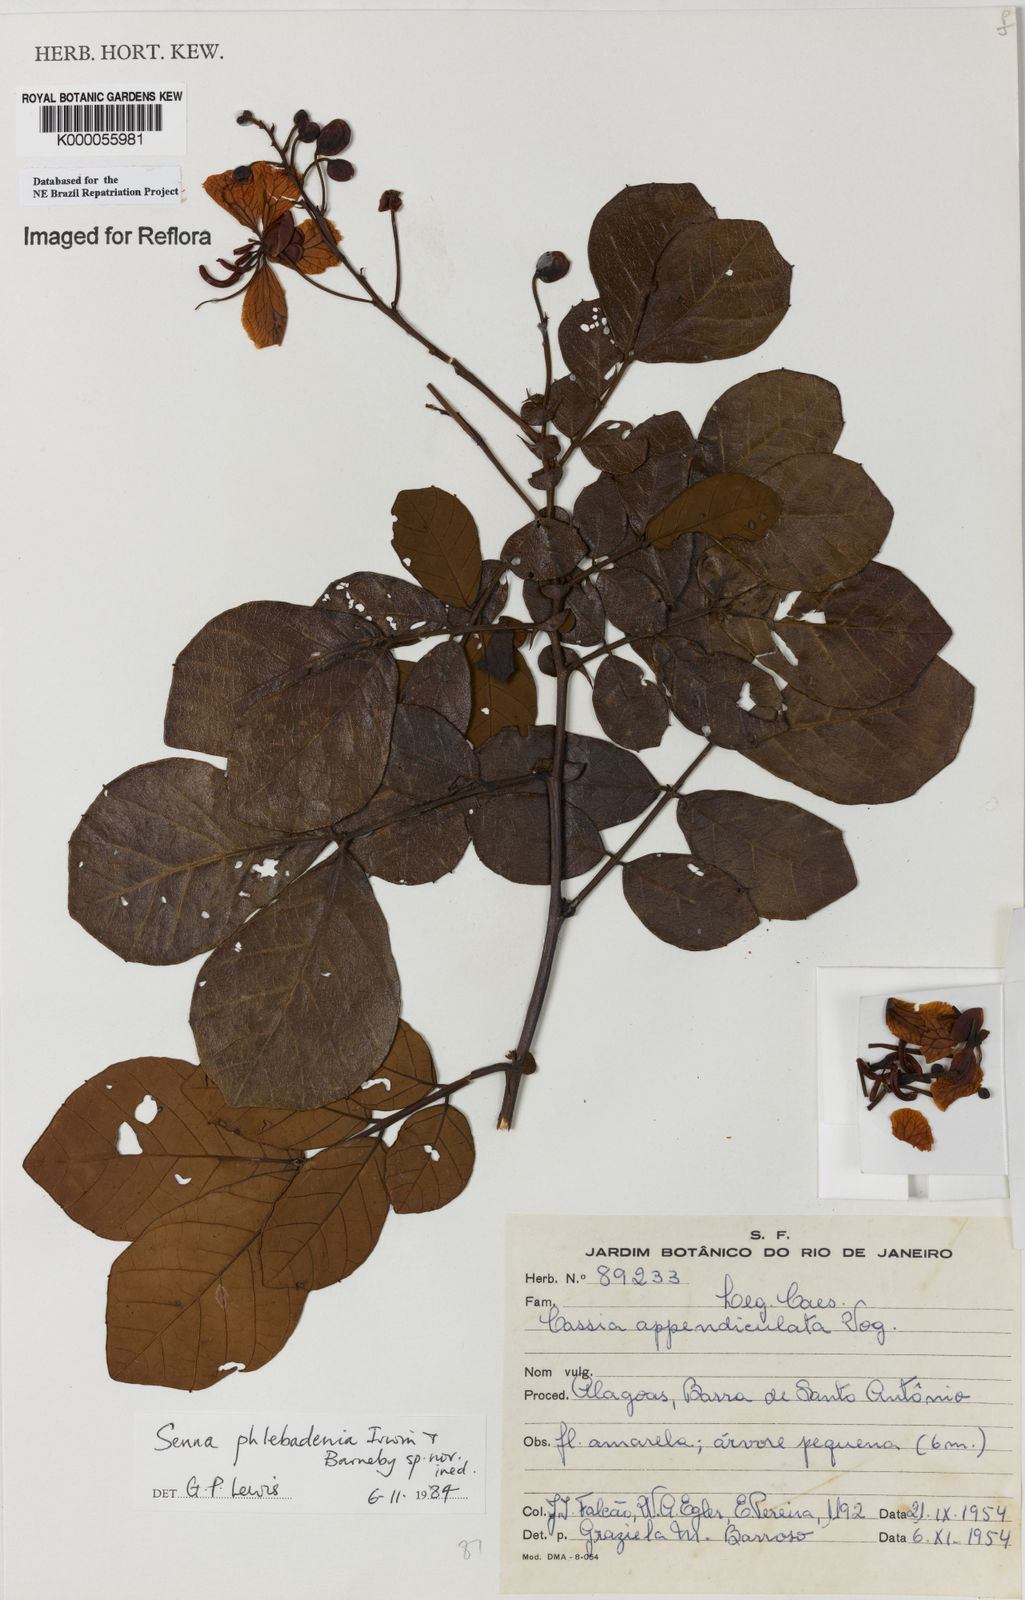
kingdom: Plantae
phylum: Tracheophyta
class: Magnoliopsida
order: Fabales
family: Fabaceae
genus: Senna
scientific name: Senna phlebadenia
